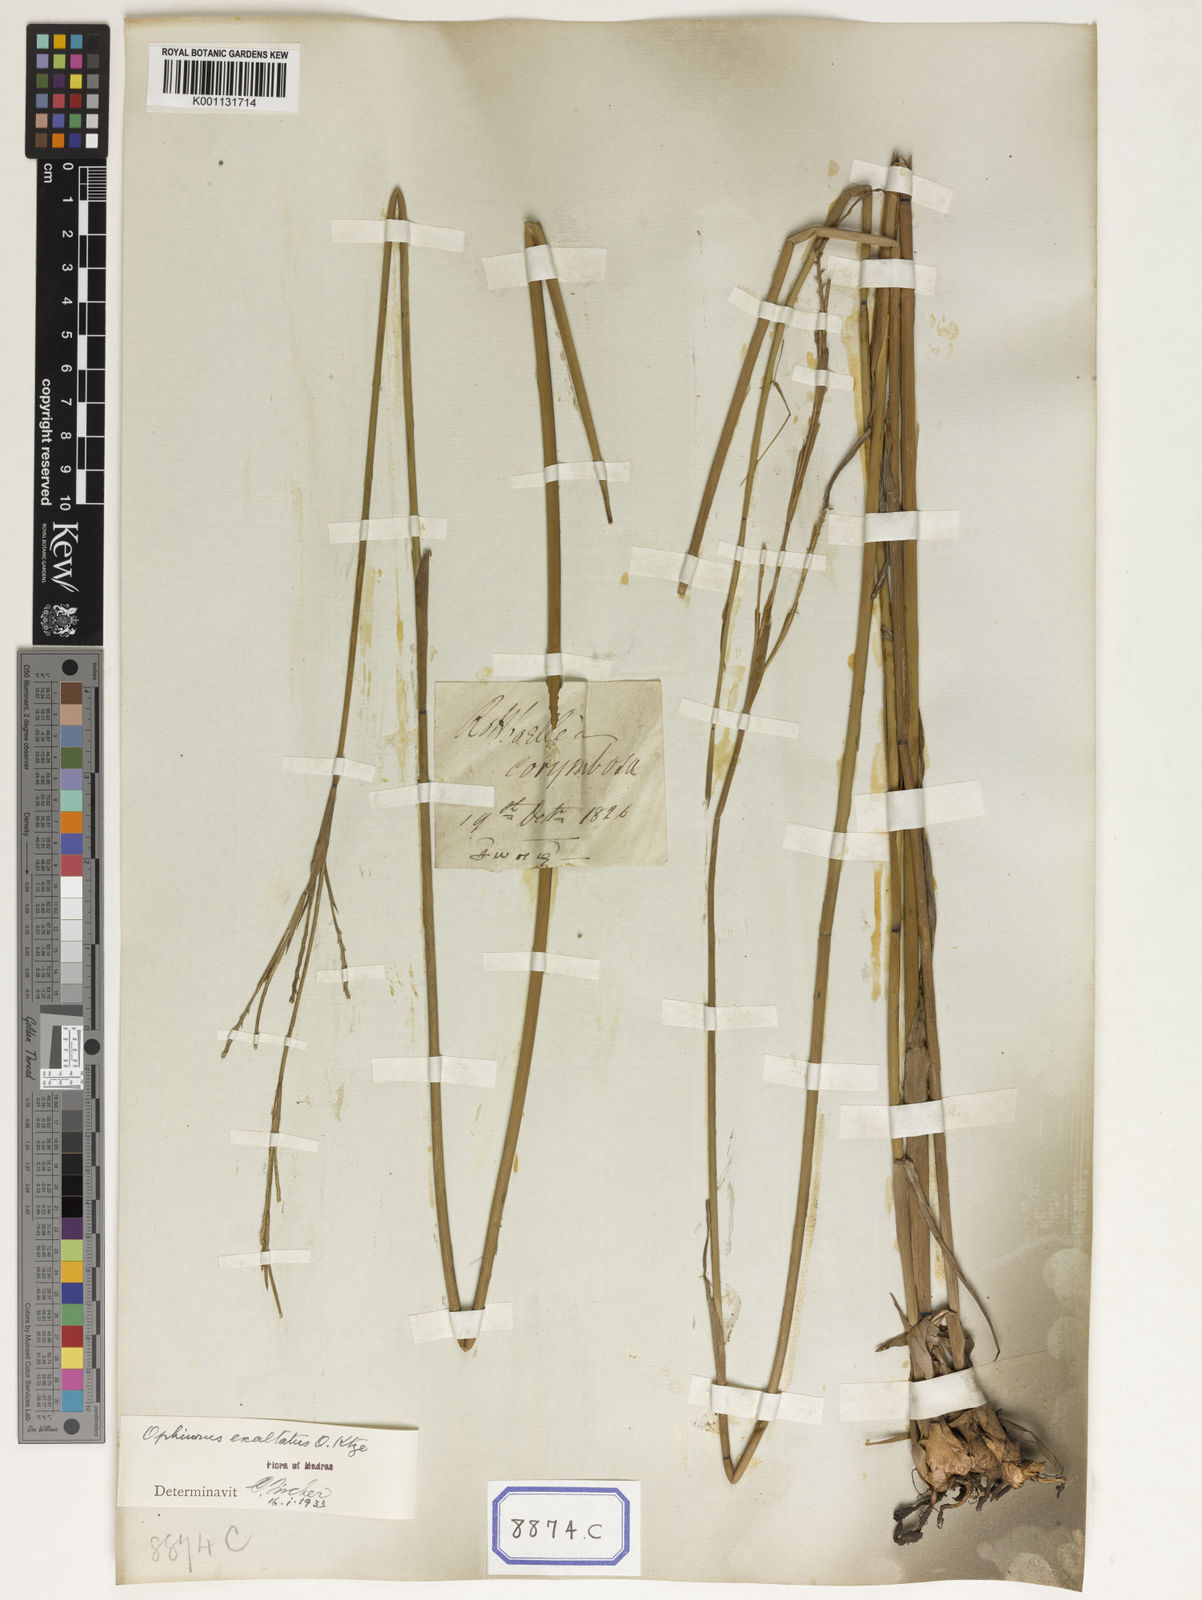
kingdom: Plantae
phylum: Tracheophyta
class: Liliopsida
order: Poales
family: Poaceae
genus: Ophiuros
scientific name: Ophiuros
